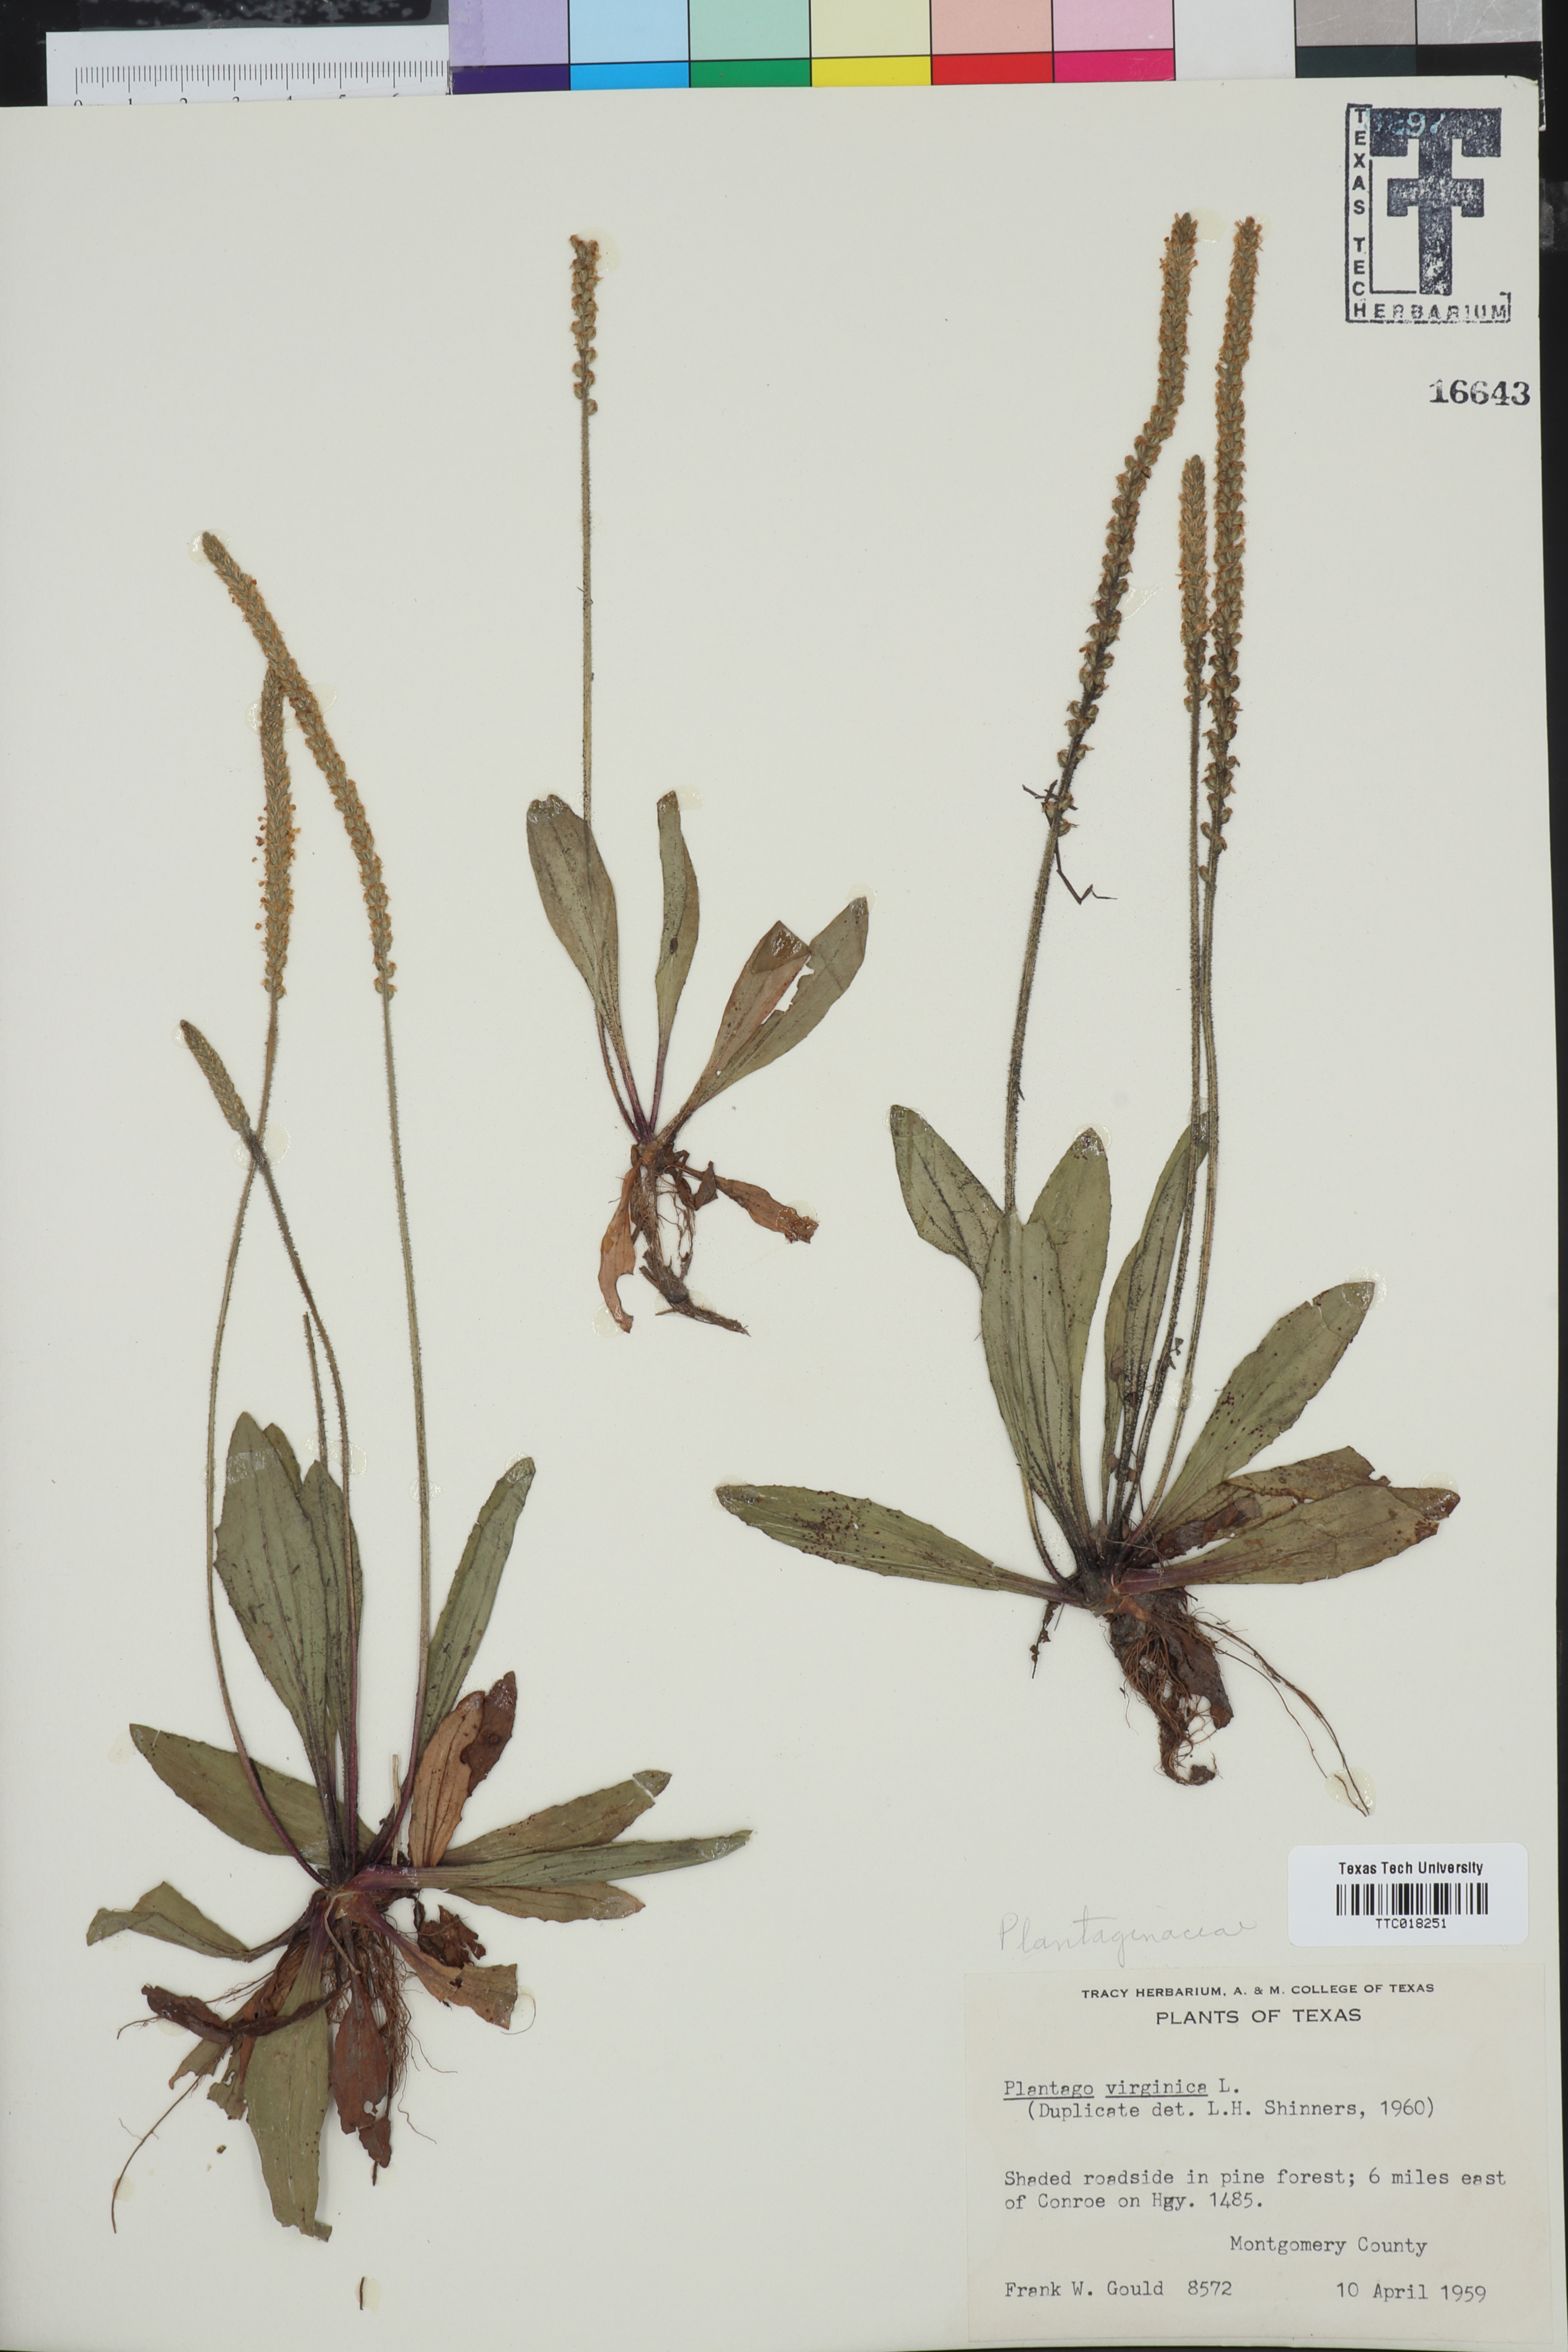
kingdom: Plantae
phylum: Tracheophyta
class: Magnoliopsida
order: Lamiales
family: Plantaginaceae
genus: Plantago
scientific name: Plantago virginica
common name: Hoary plantain
